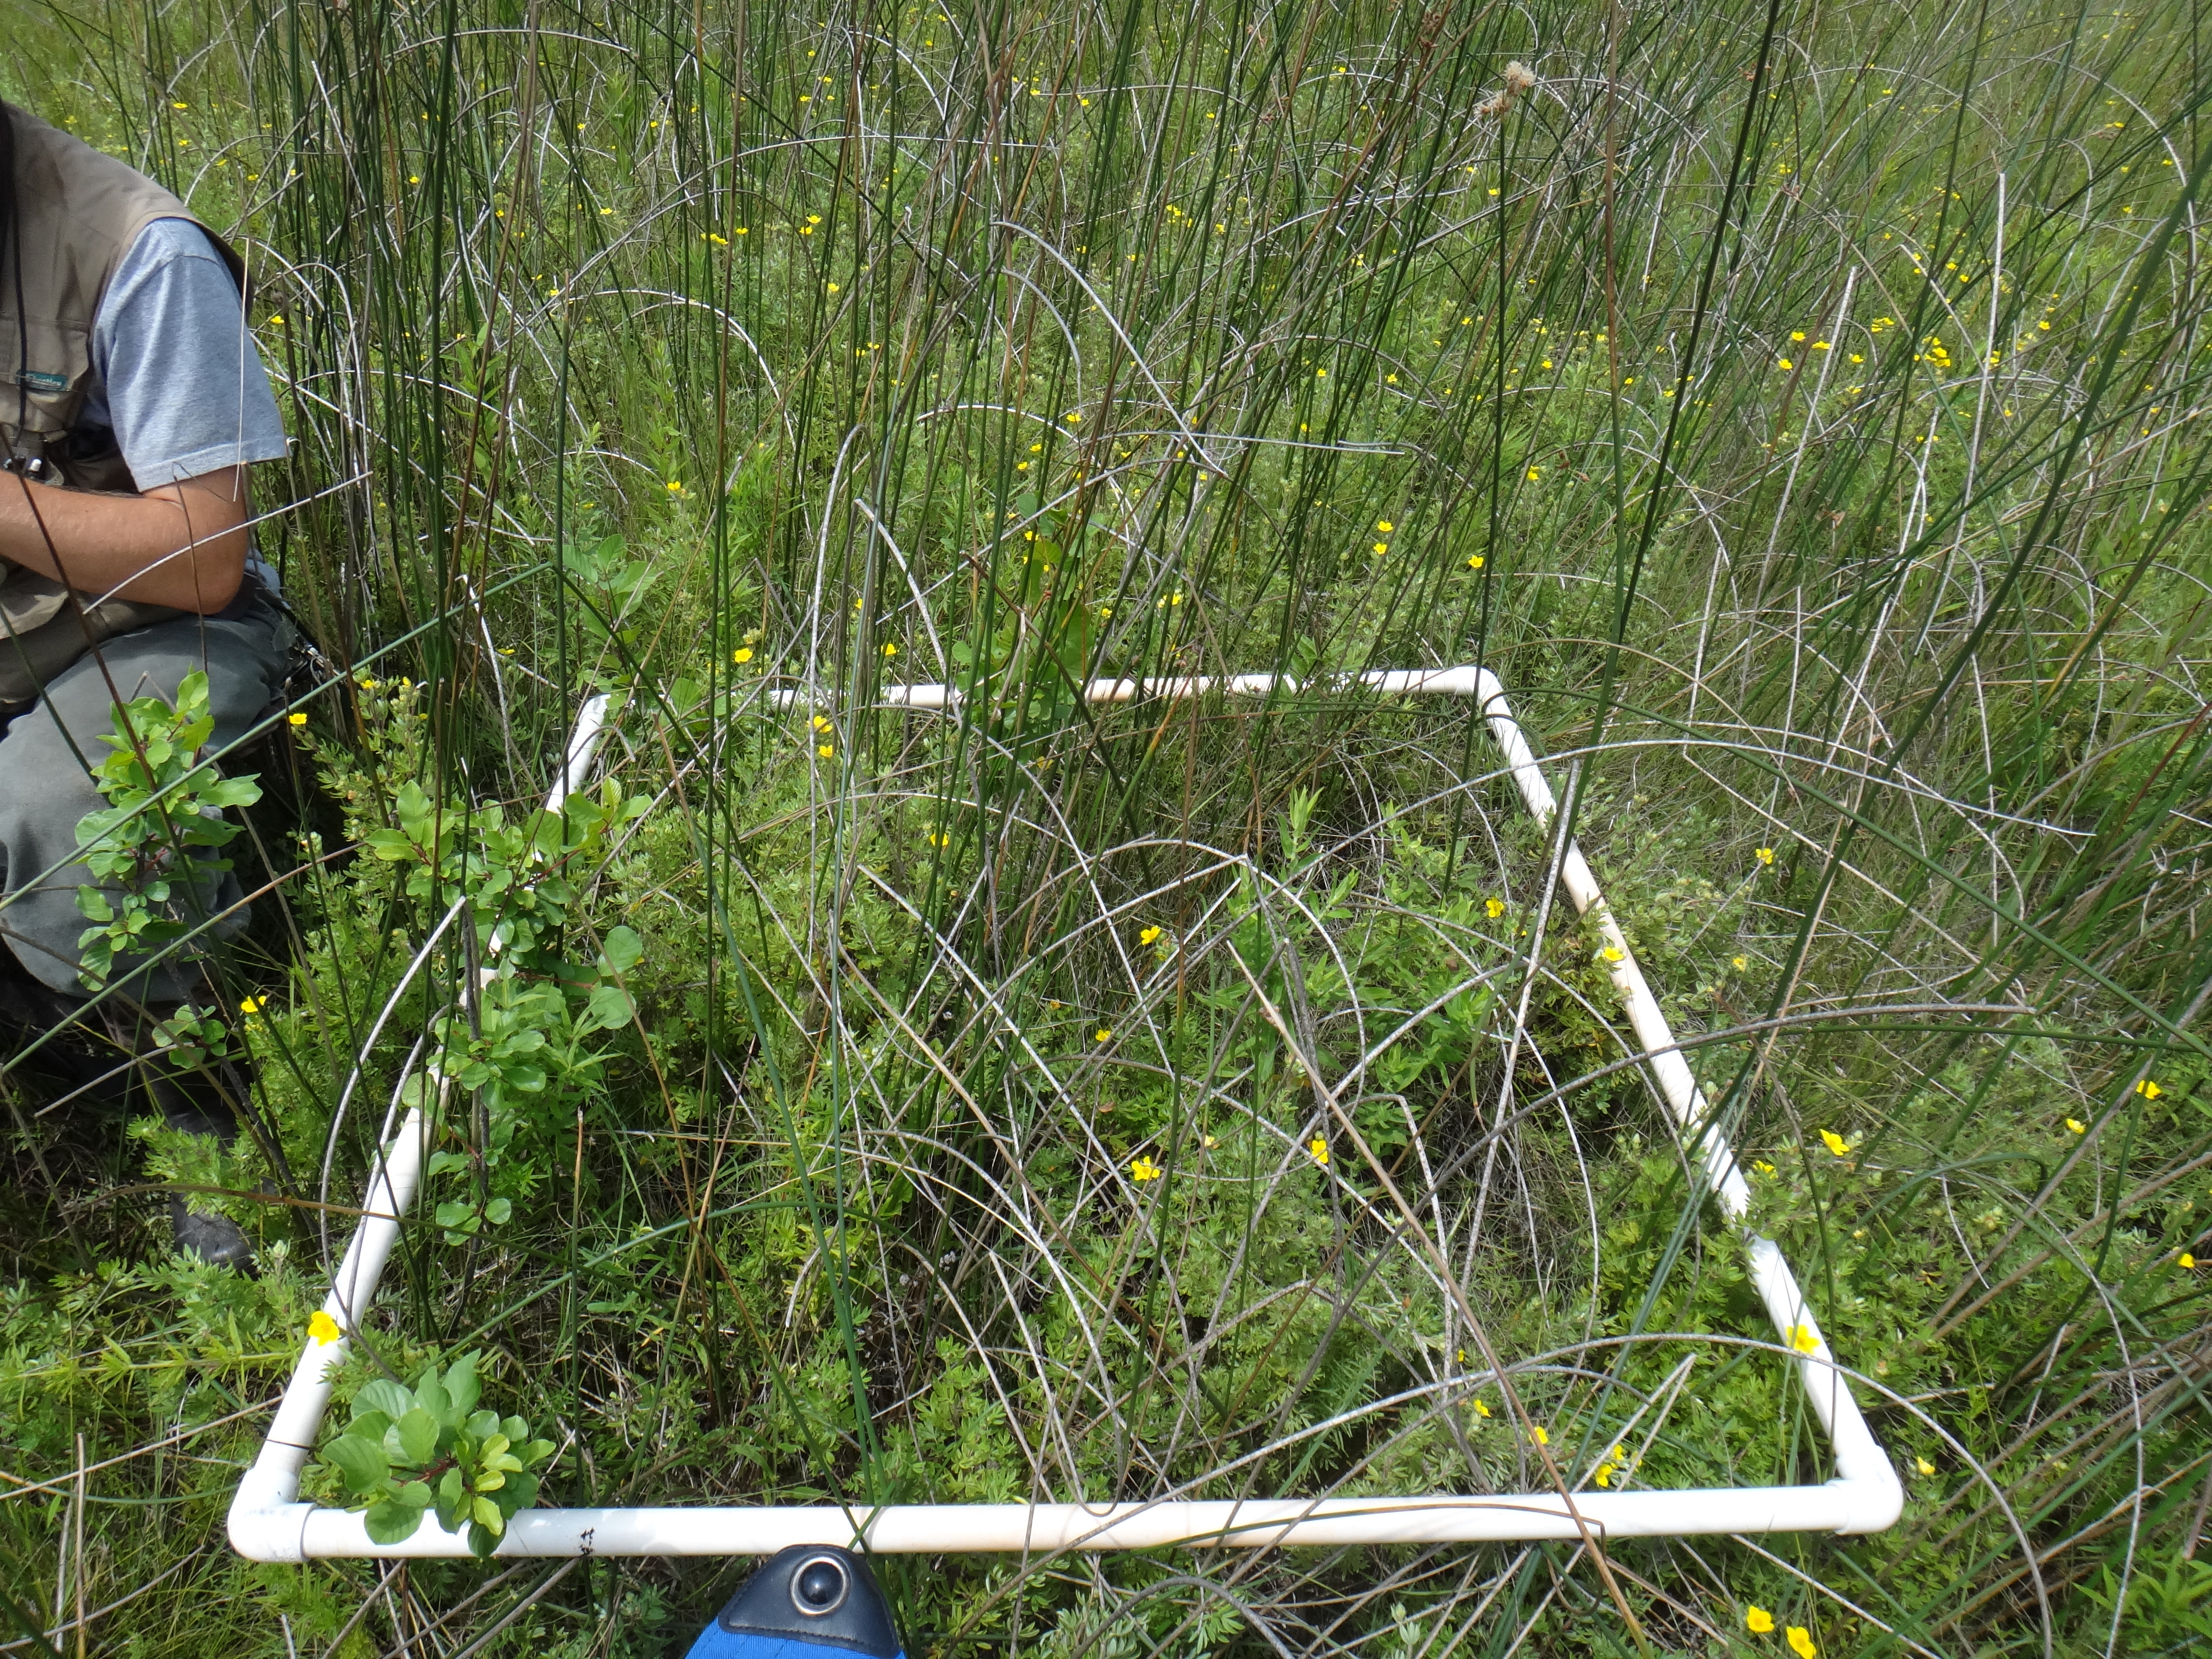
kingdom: Plantae
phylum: Tracheophyta
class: Magnoliopsida
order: Rosales
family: Rhamnaceae
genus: Frangula
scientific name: Frangula alnus
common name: Alder buckthorn
